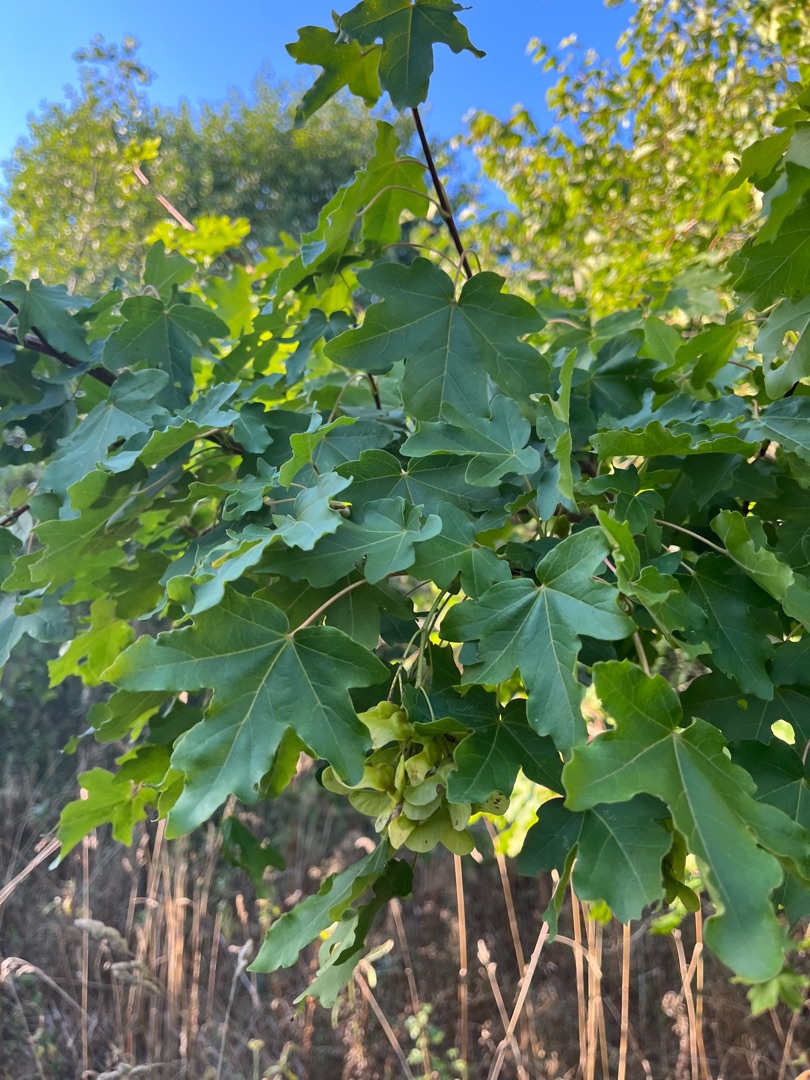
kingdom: Plantae
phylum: Tracheophyta
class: Magnoliopsida
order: Sapindales
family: Sapindaceae
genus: Acer
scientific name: Acer campestre
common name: Navr
